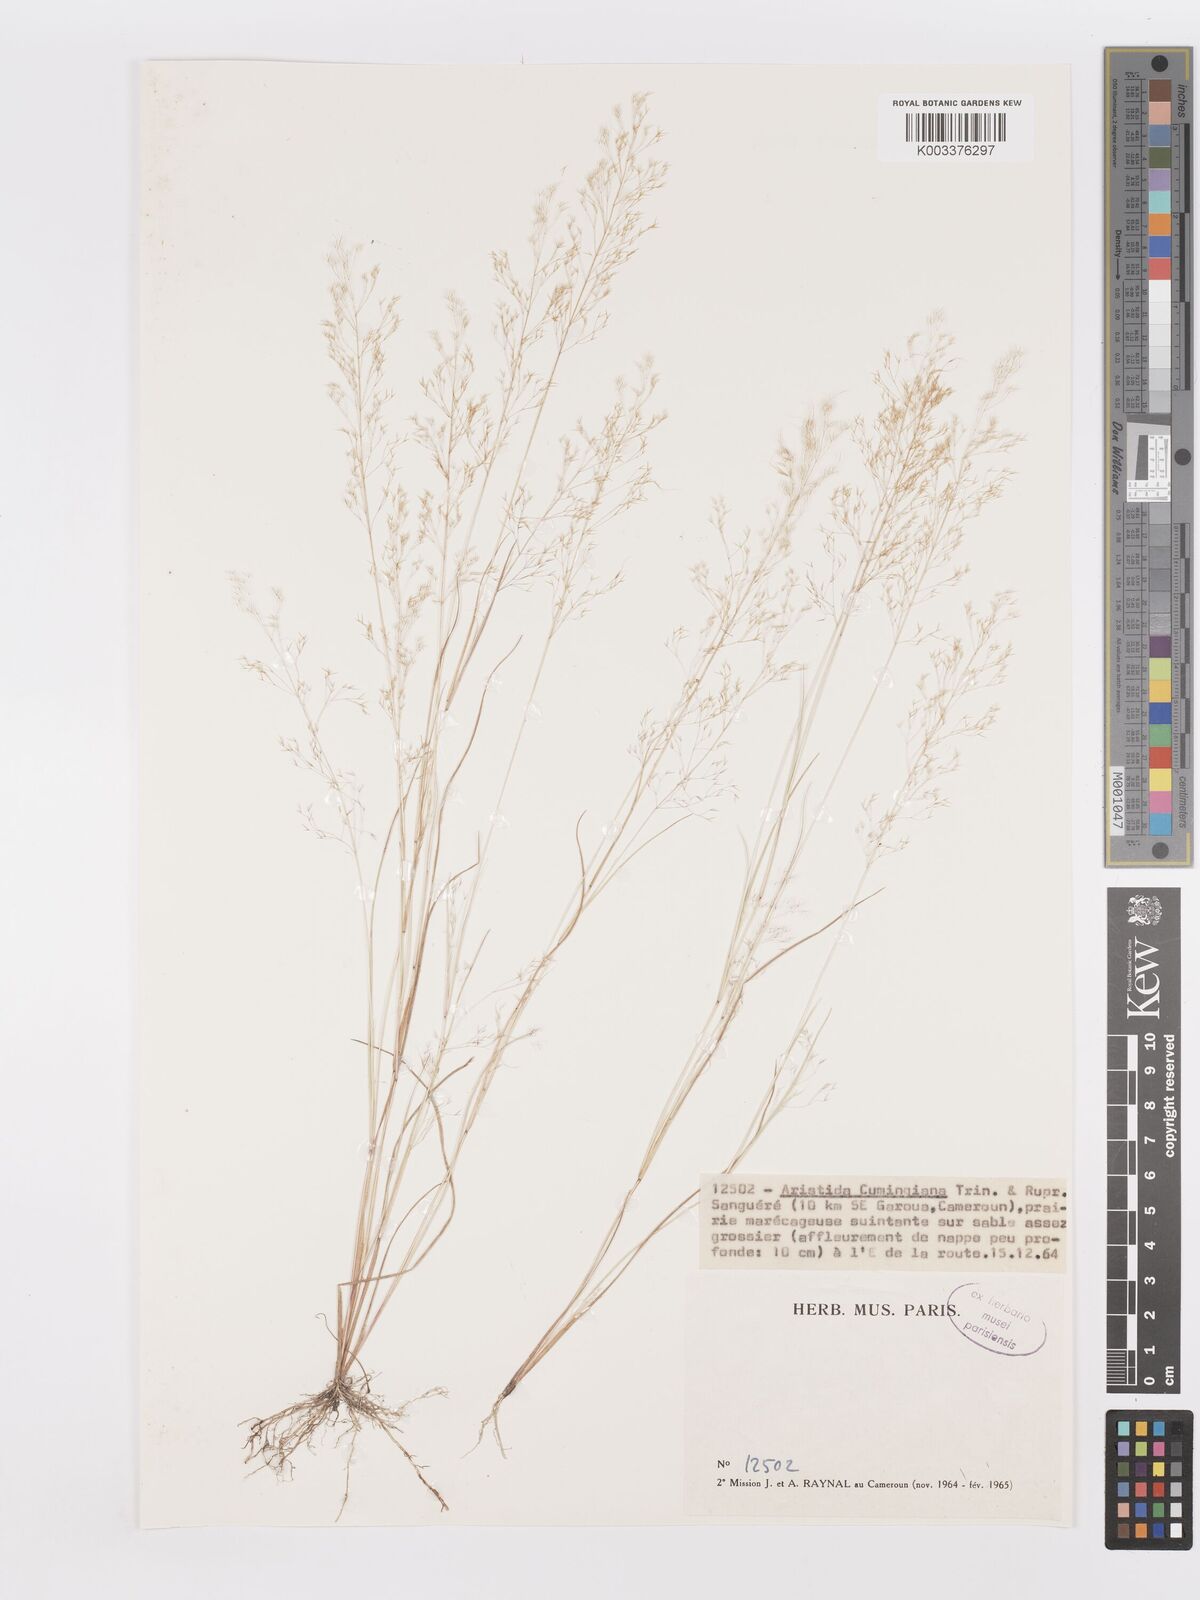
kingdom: Plantae
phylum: Tracheophyta
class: Liliopsida
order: Poales
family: Poaceae
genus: Aristida
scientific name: Aristida cumingiana
